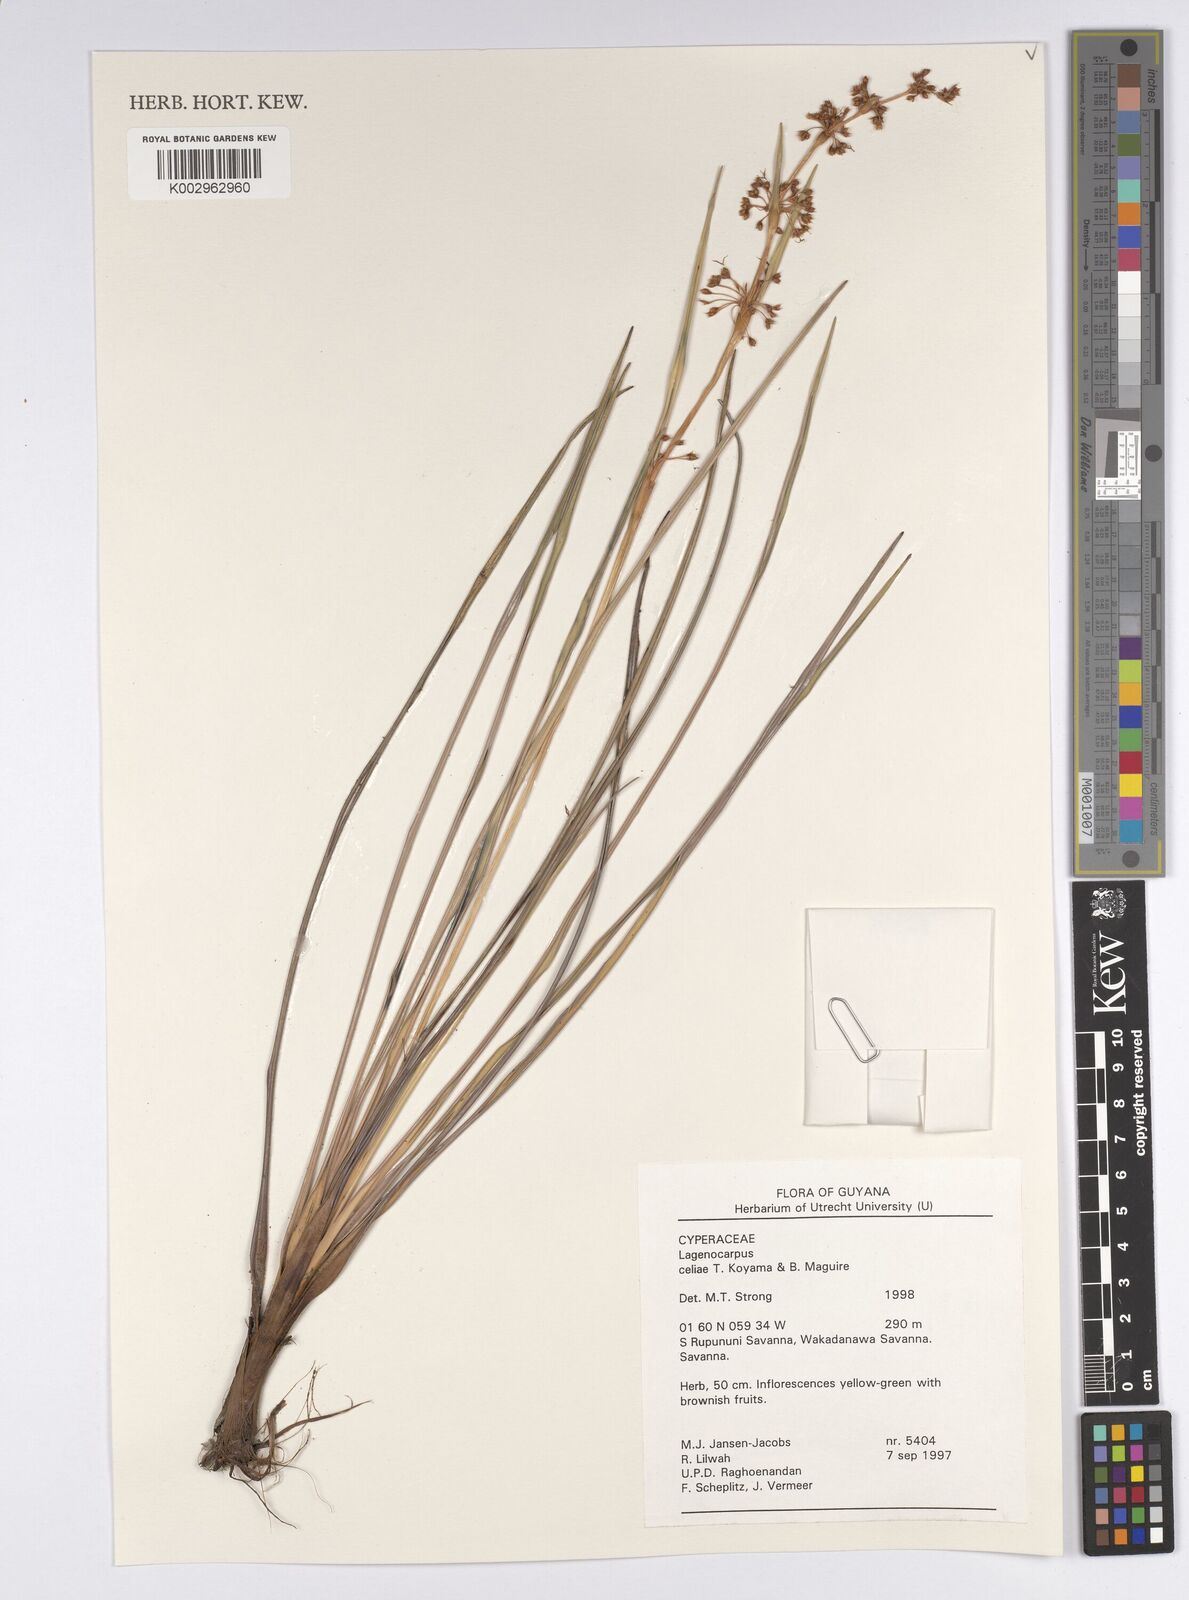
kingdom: Plantae
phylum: Tracheophyta
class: Liliopsida
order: Poales
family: Cyperaceae
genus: Lagenocarpus
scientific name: Lagenocarpus celiae
